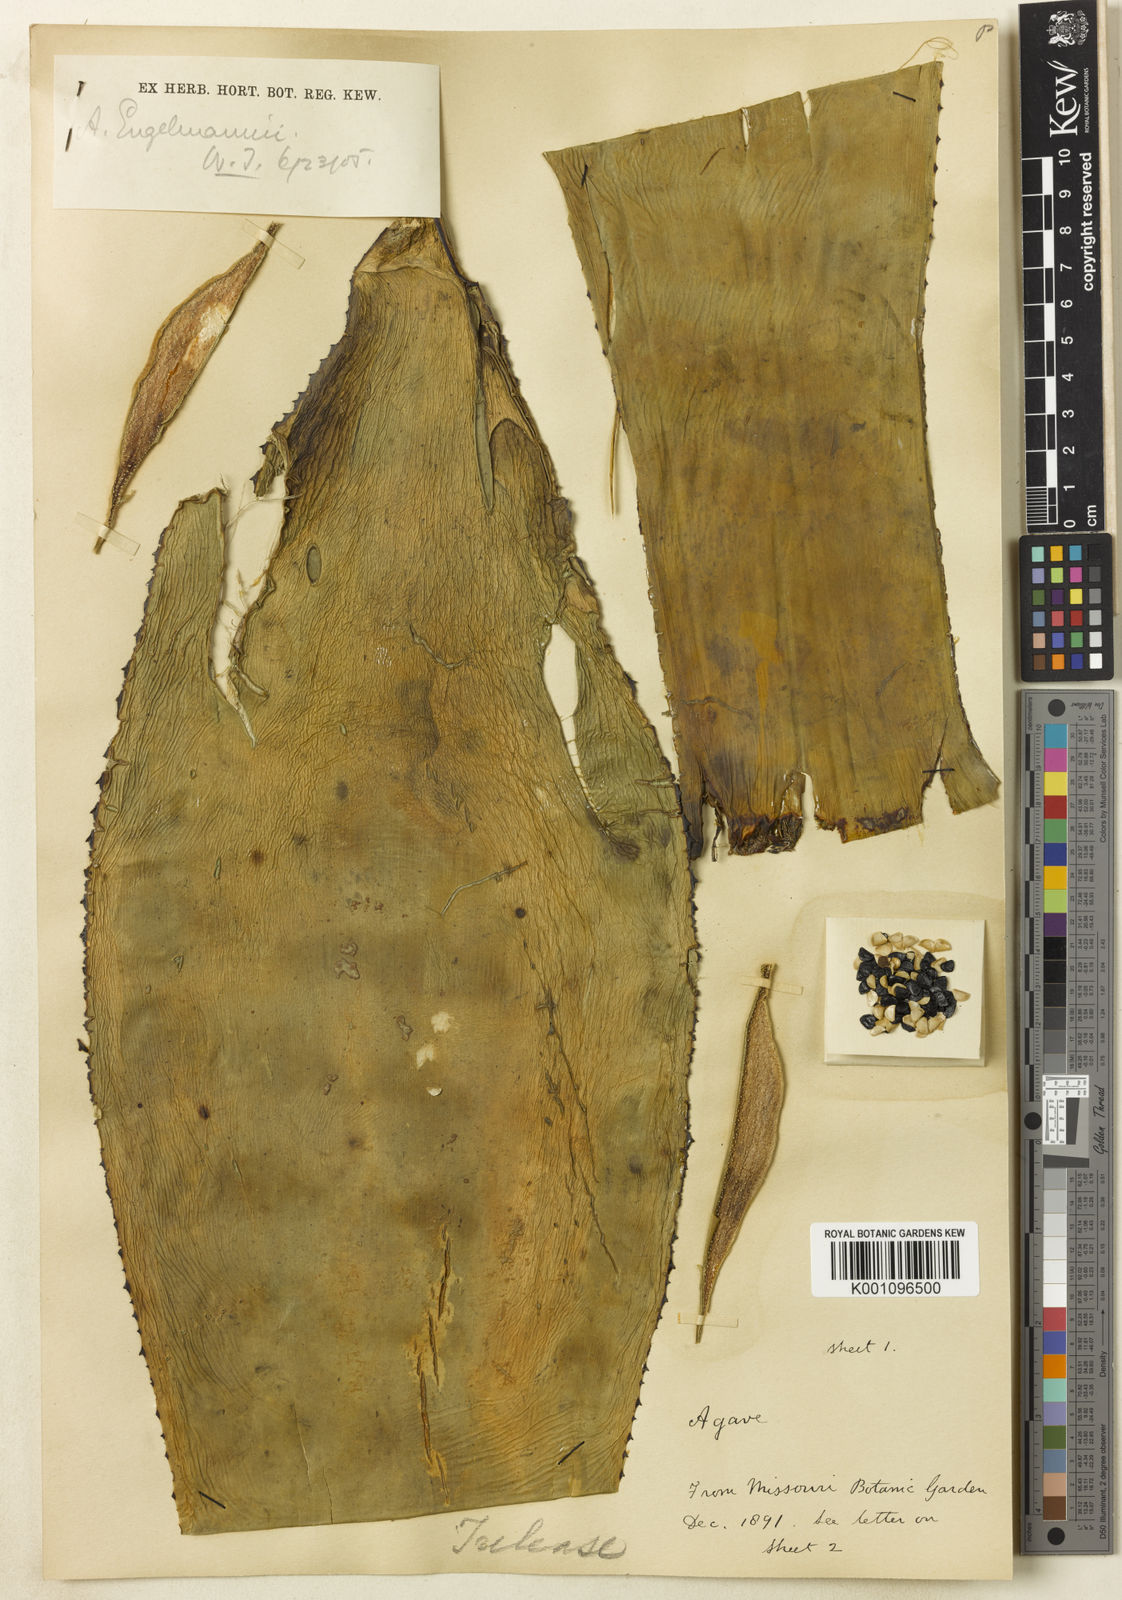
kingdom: Plantae
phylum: Tracheophyta
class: Liliopsida
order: Asparagales
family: Asparagaceae
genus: Agave
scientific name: Agave polyacantha
